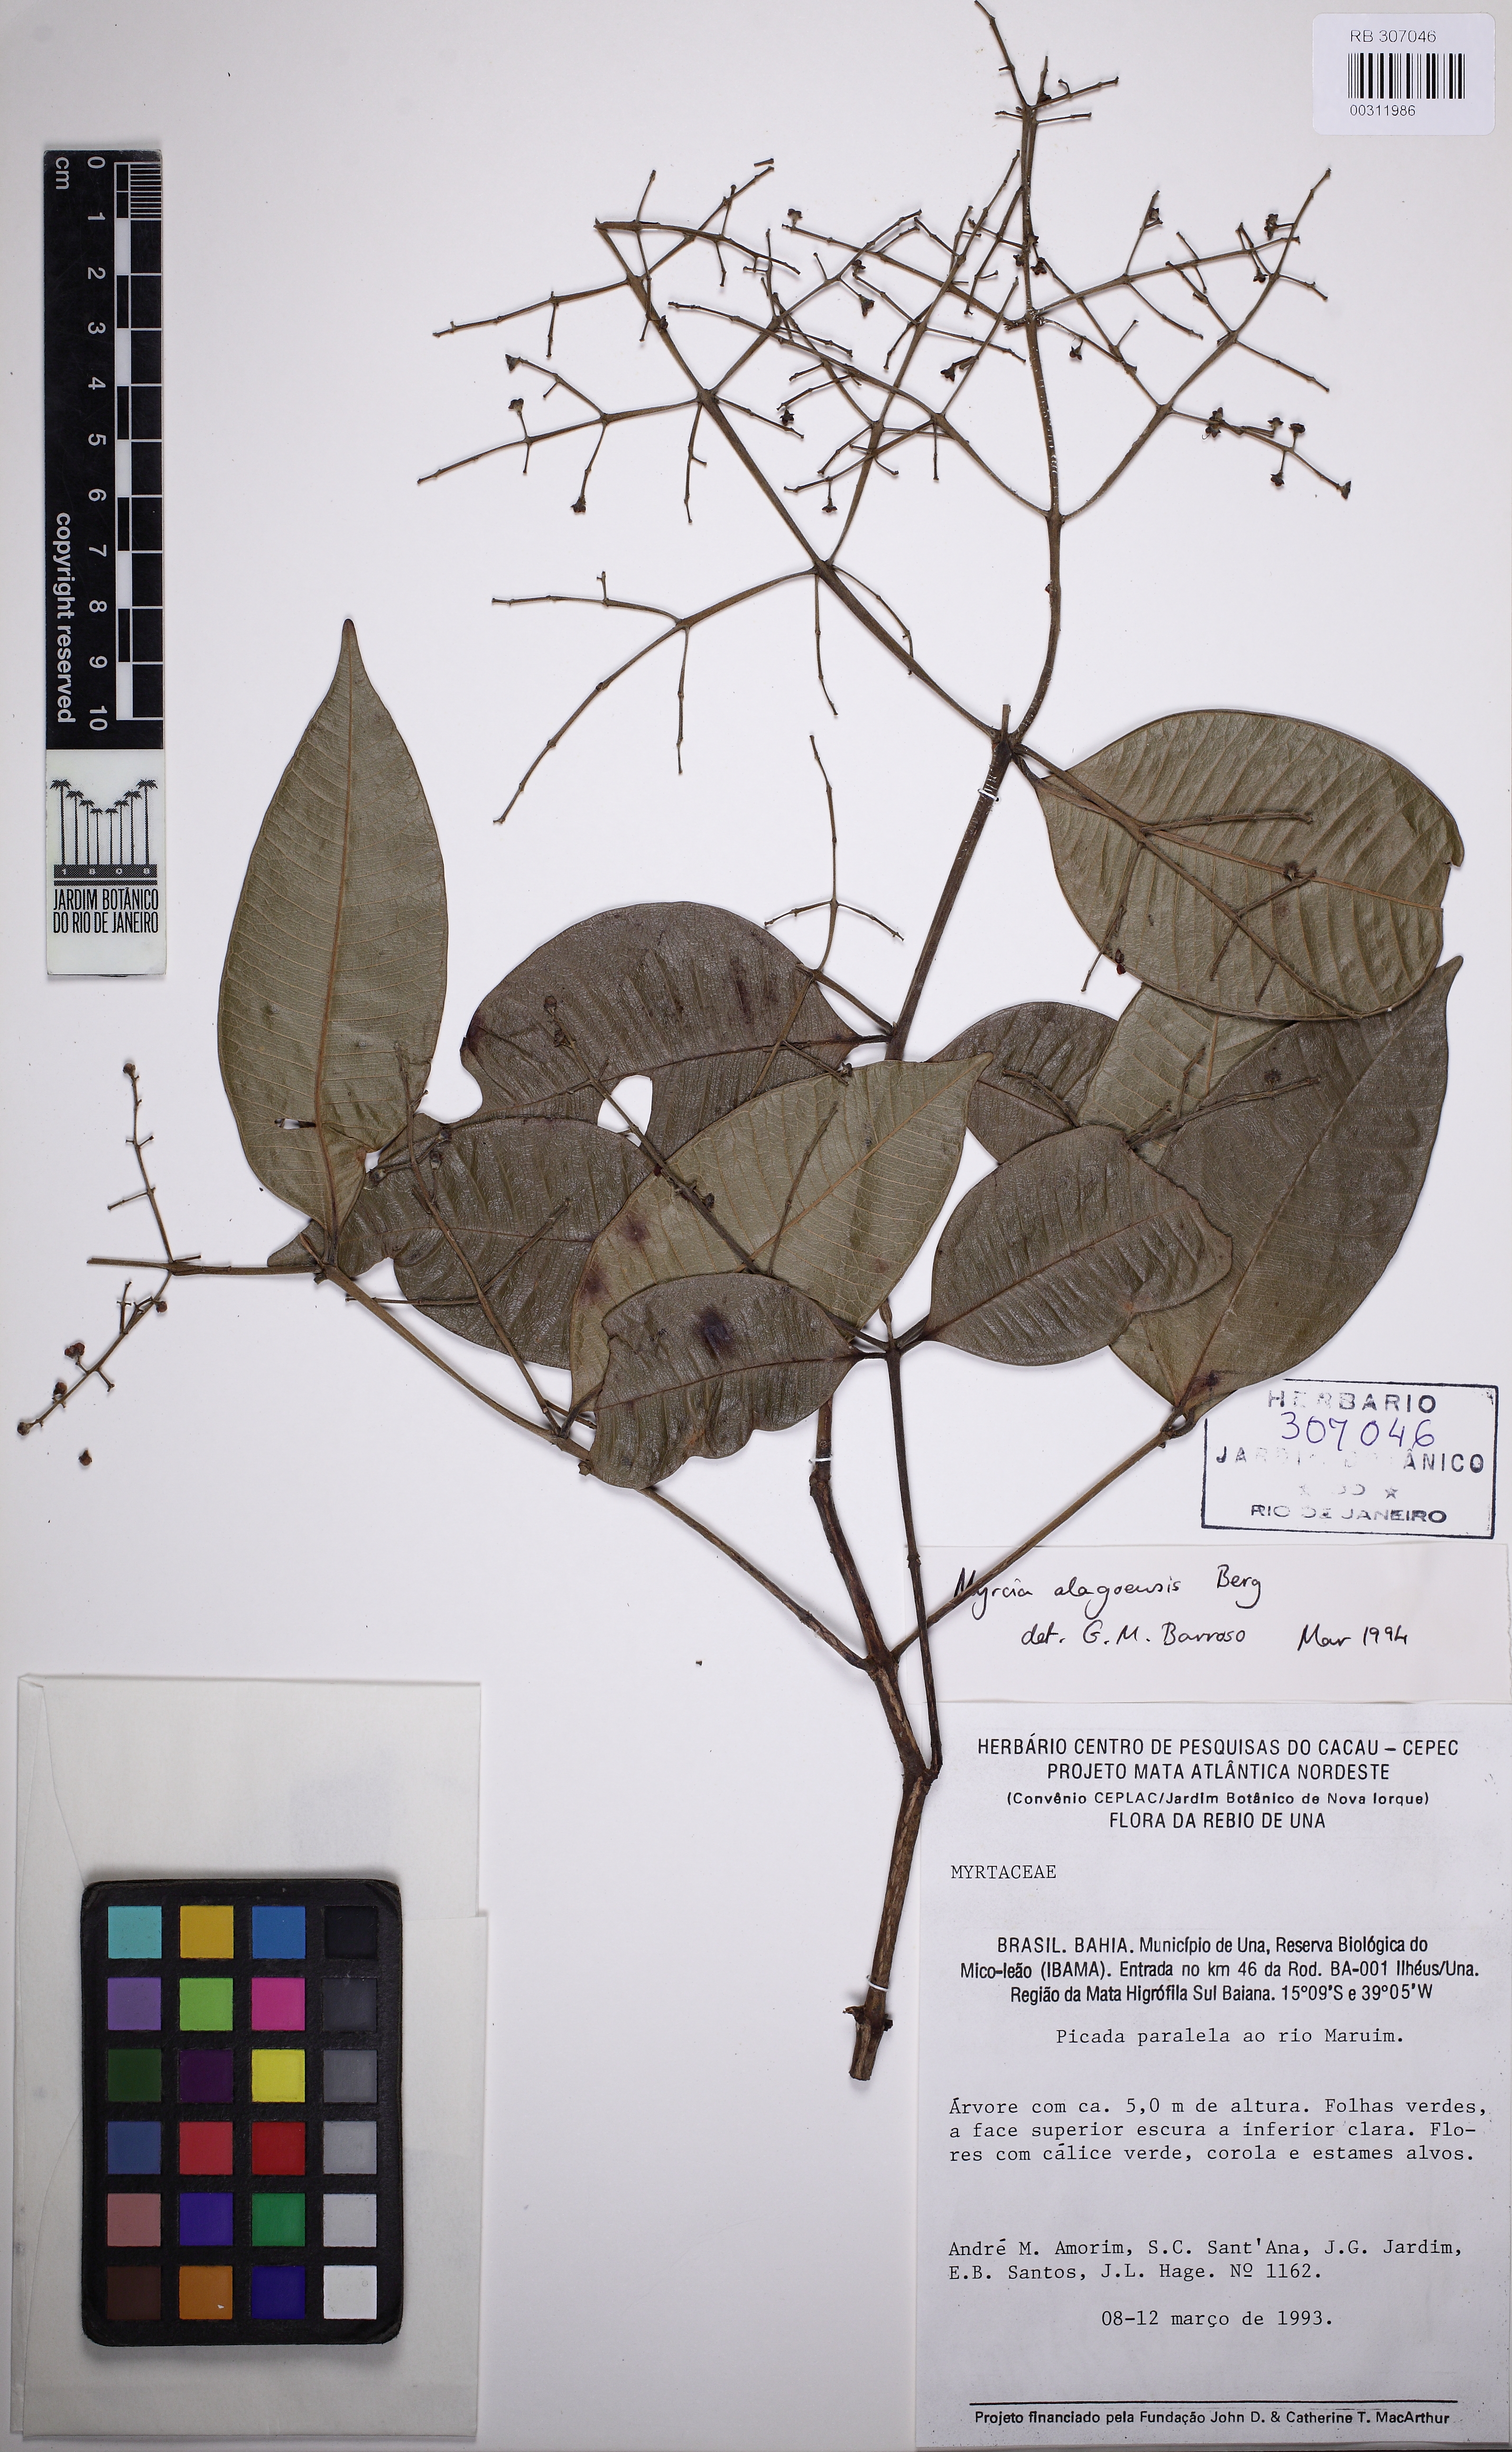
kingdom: Plantae
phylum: Tracheophyta
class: Magnoliopsida
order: Myrtales
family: Myrtaceae
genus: Myrcia
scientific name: Myrcia splendens
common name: Surinam cherry
